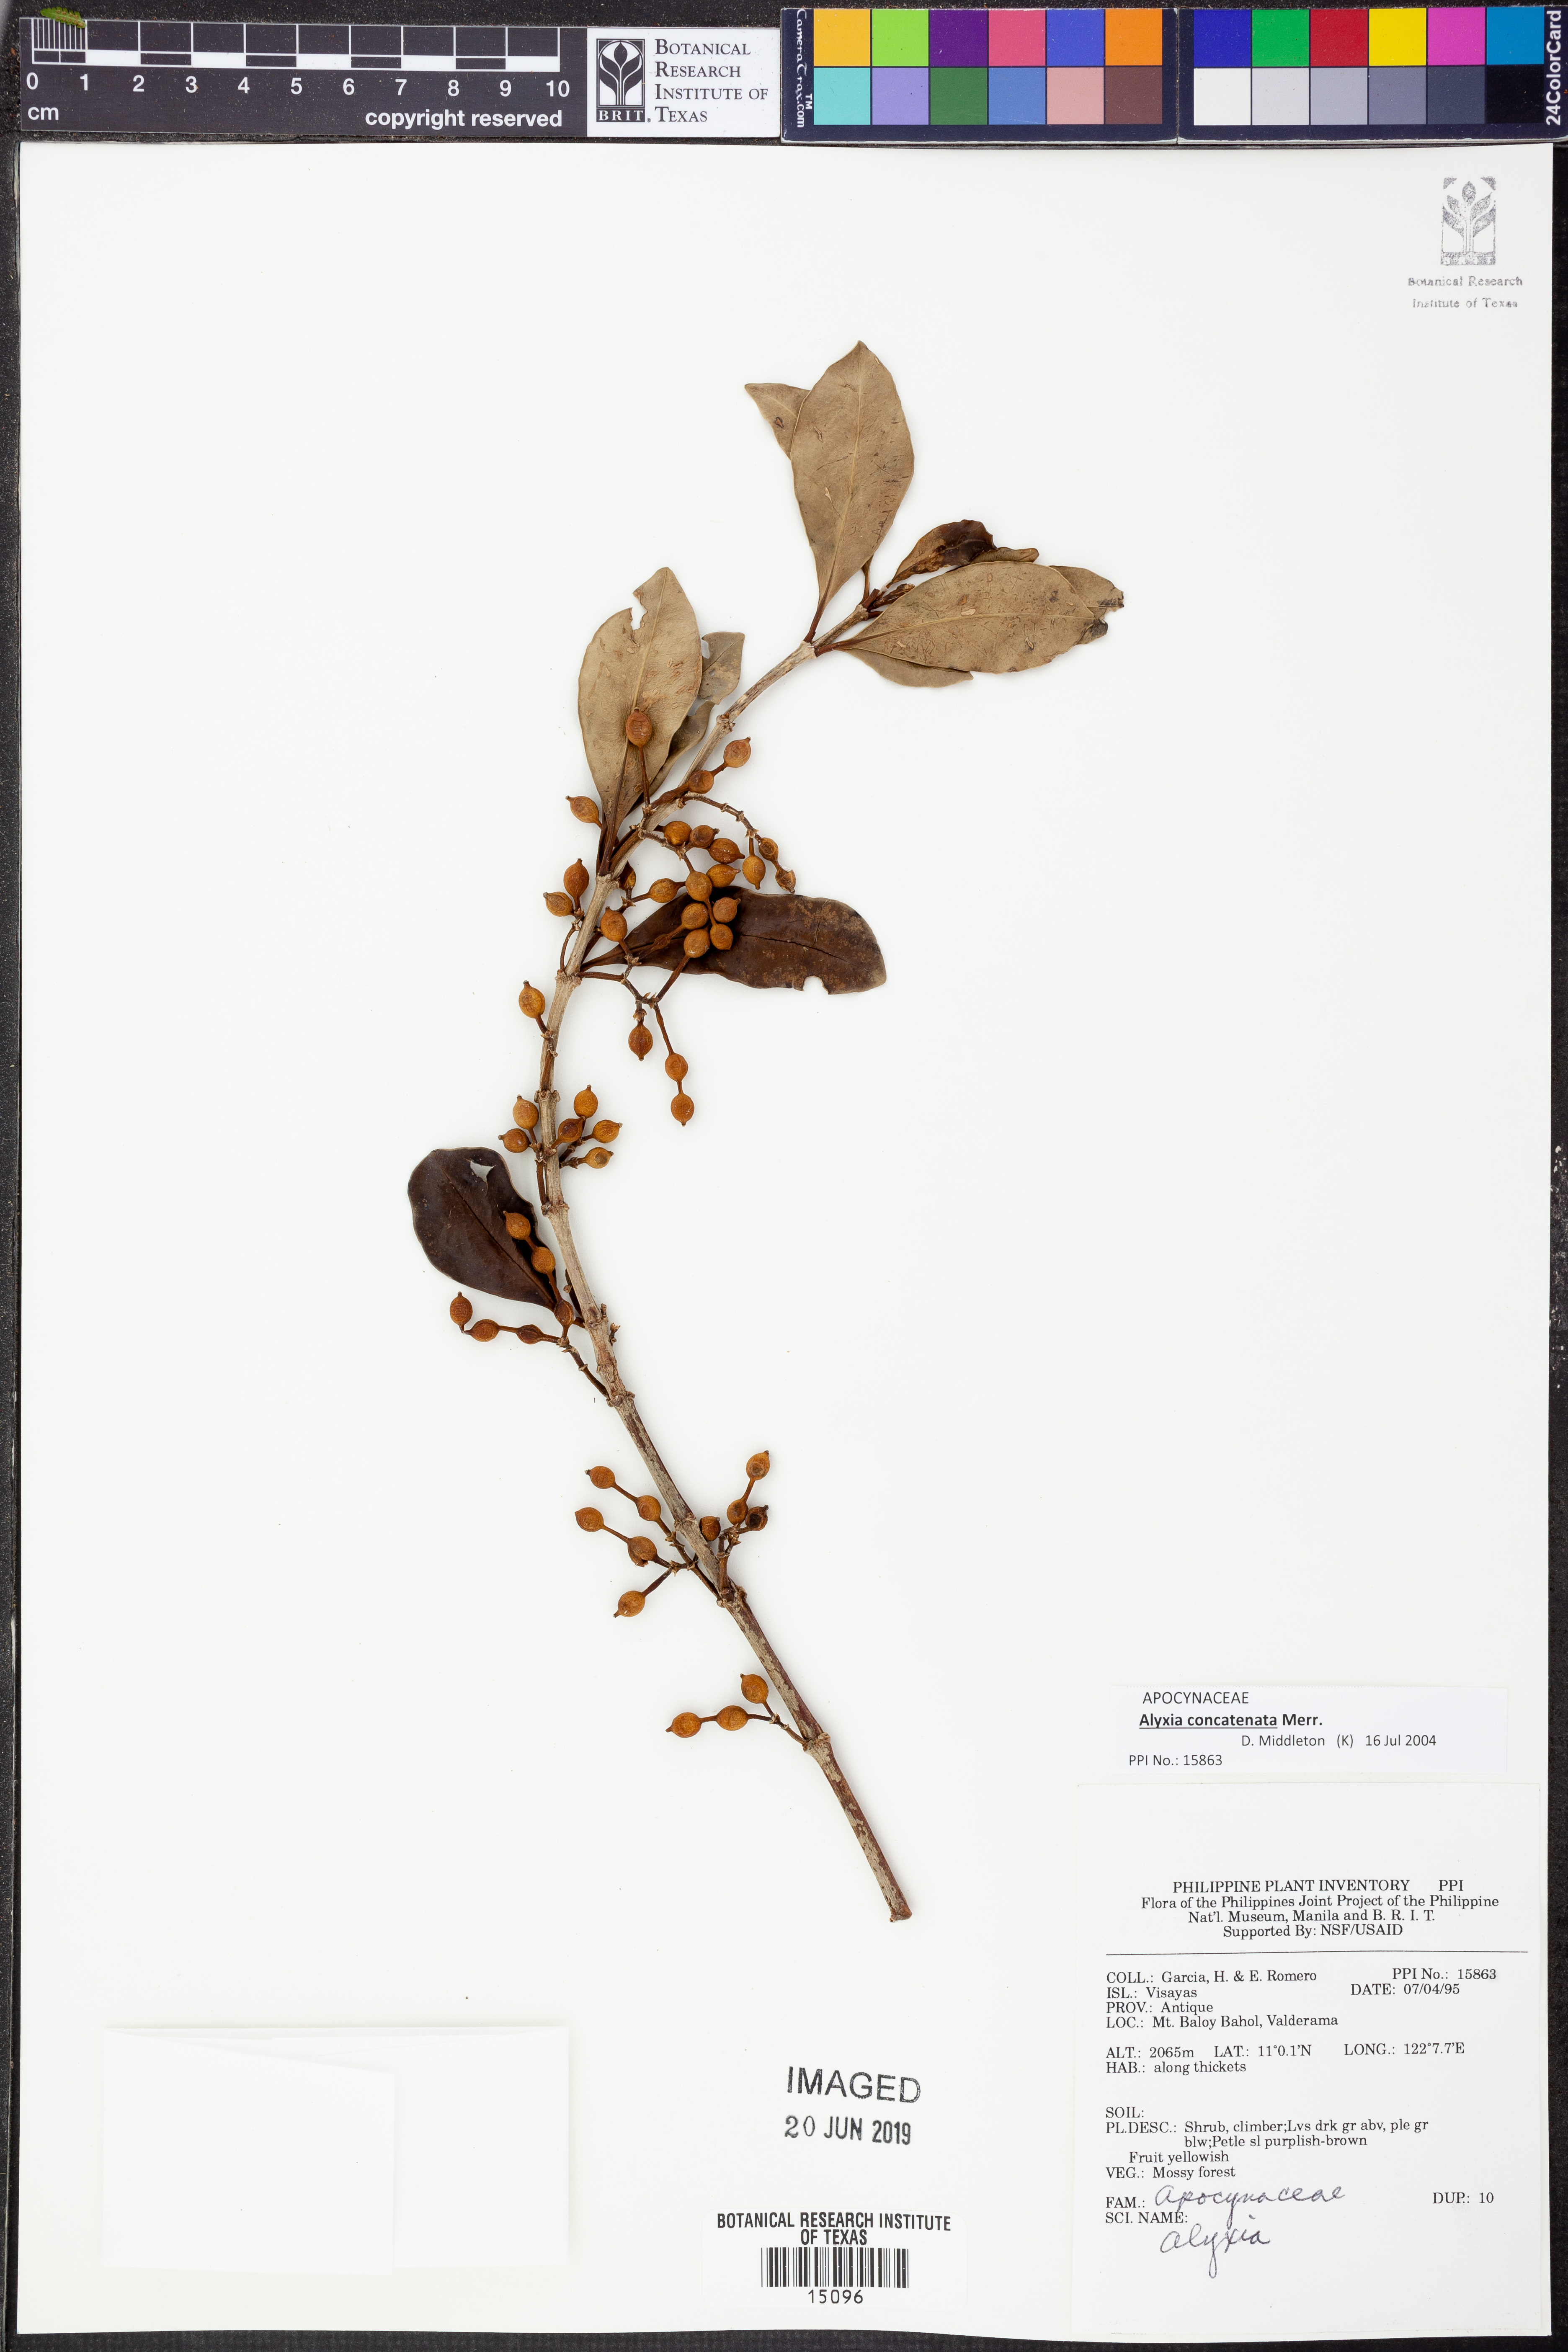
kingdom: Plantae
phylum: Tracheophyta
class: Magnoliopsida
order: Gentianales
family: Apocynaceae
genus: Alyxia
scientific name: Alyxia concatenata
